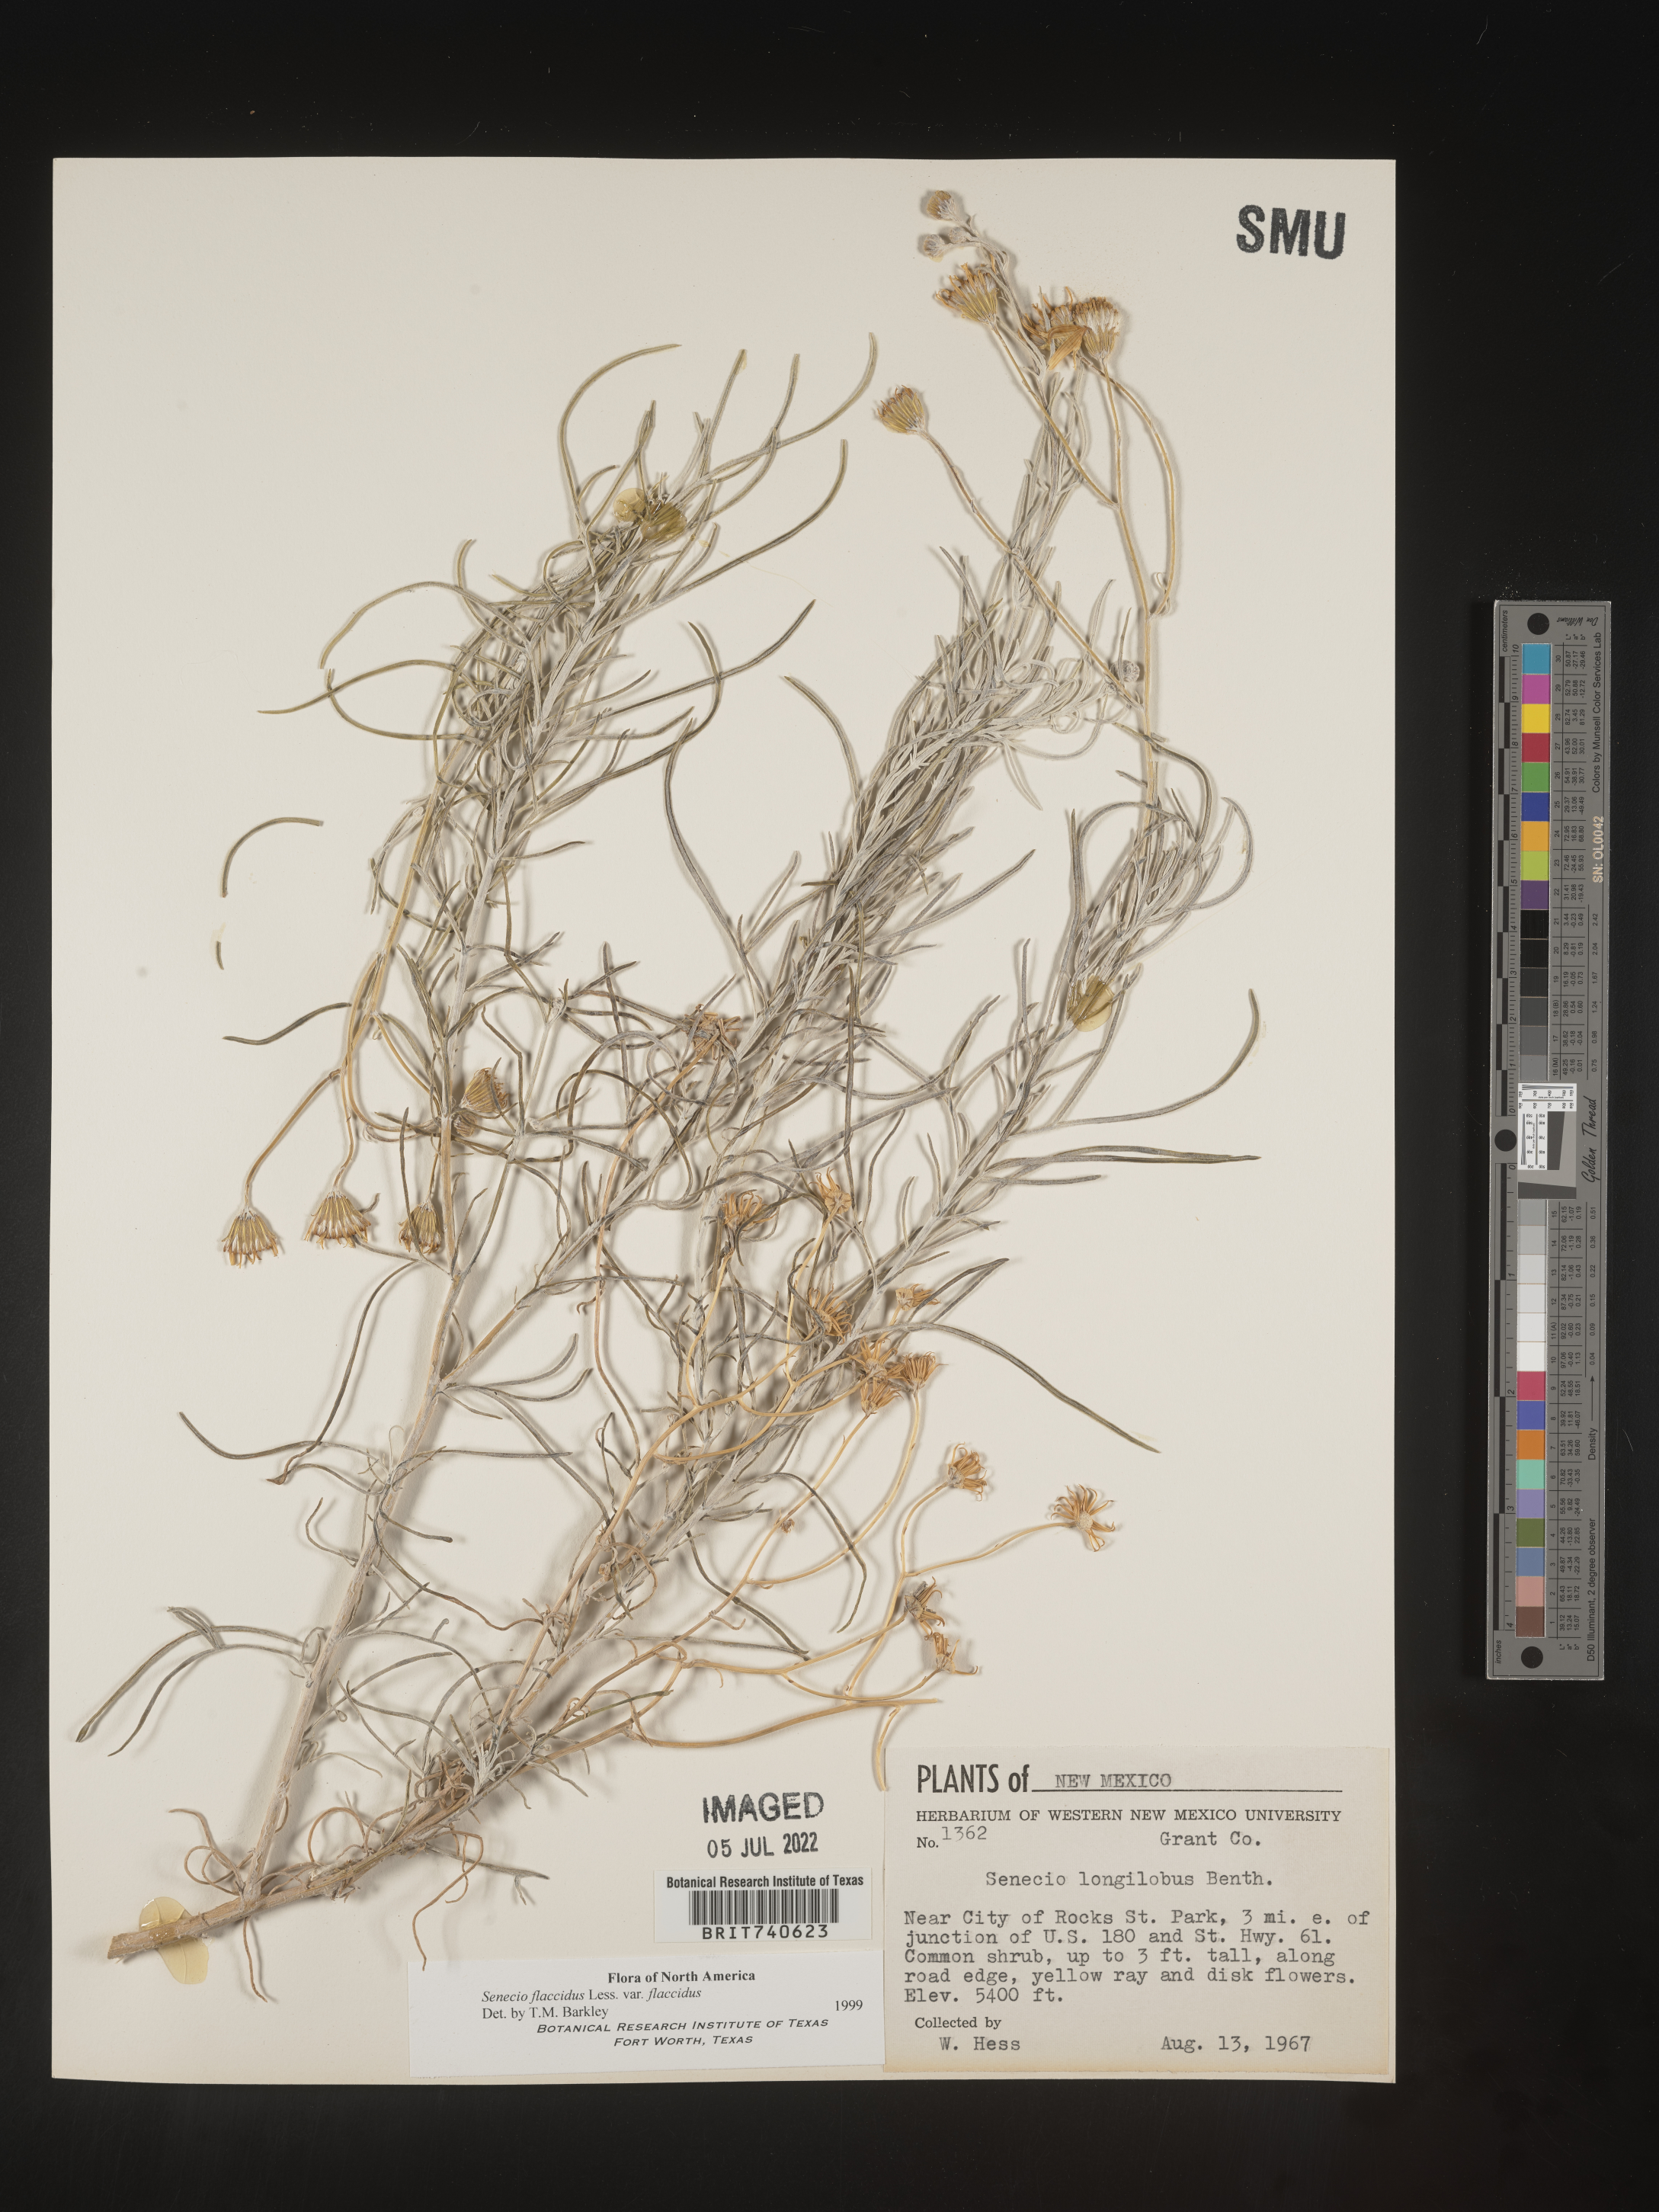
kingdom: Plantae
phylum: Tracheophyta
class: Magnoliopsida
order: Asterales
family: Asteraceae
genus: Senecio
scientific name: Senecio flaccidus
